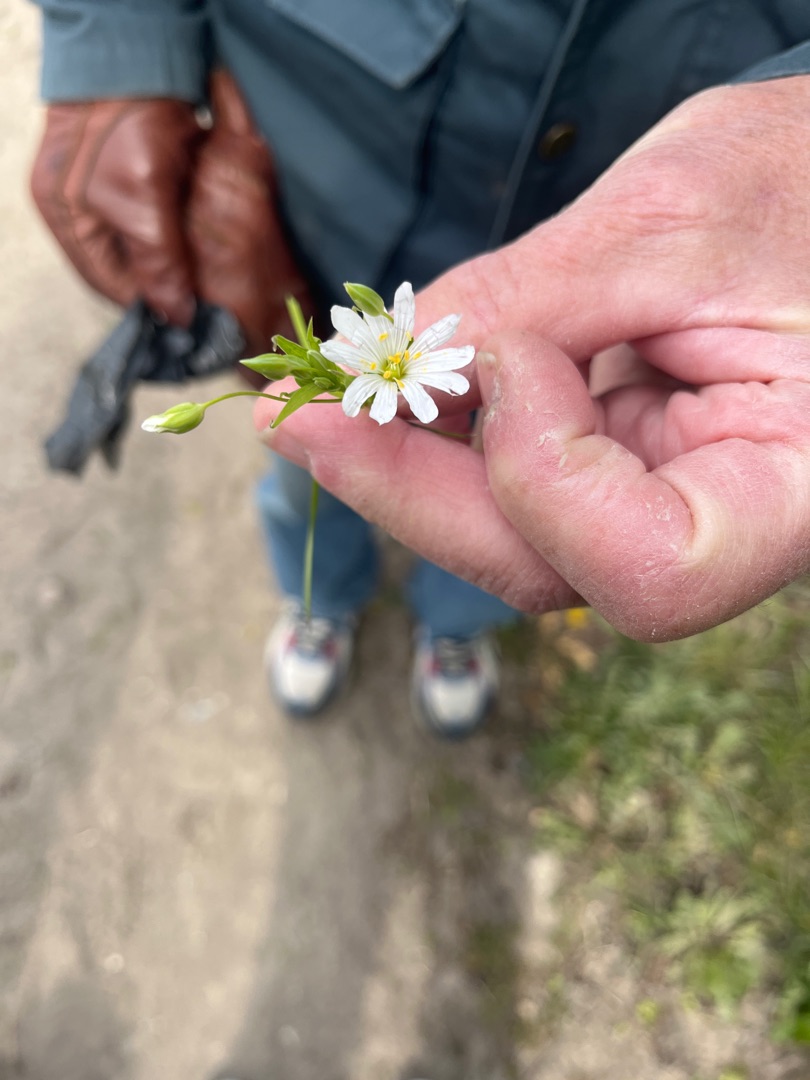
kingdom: Plantae
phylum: Tracheophyta
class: Magnoliopsida
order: Caryophyllales
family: Caryophyllaceae
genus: Rabelera
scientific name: Rabelera holostea
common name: Stor fladstjerne
